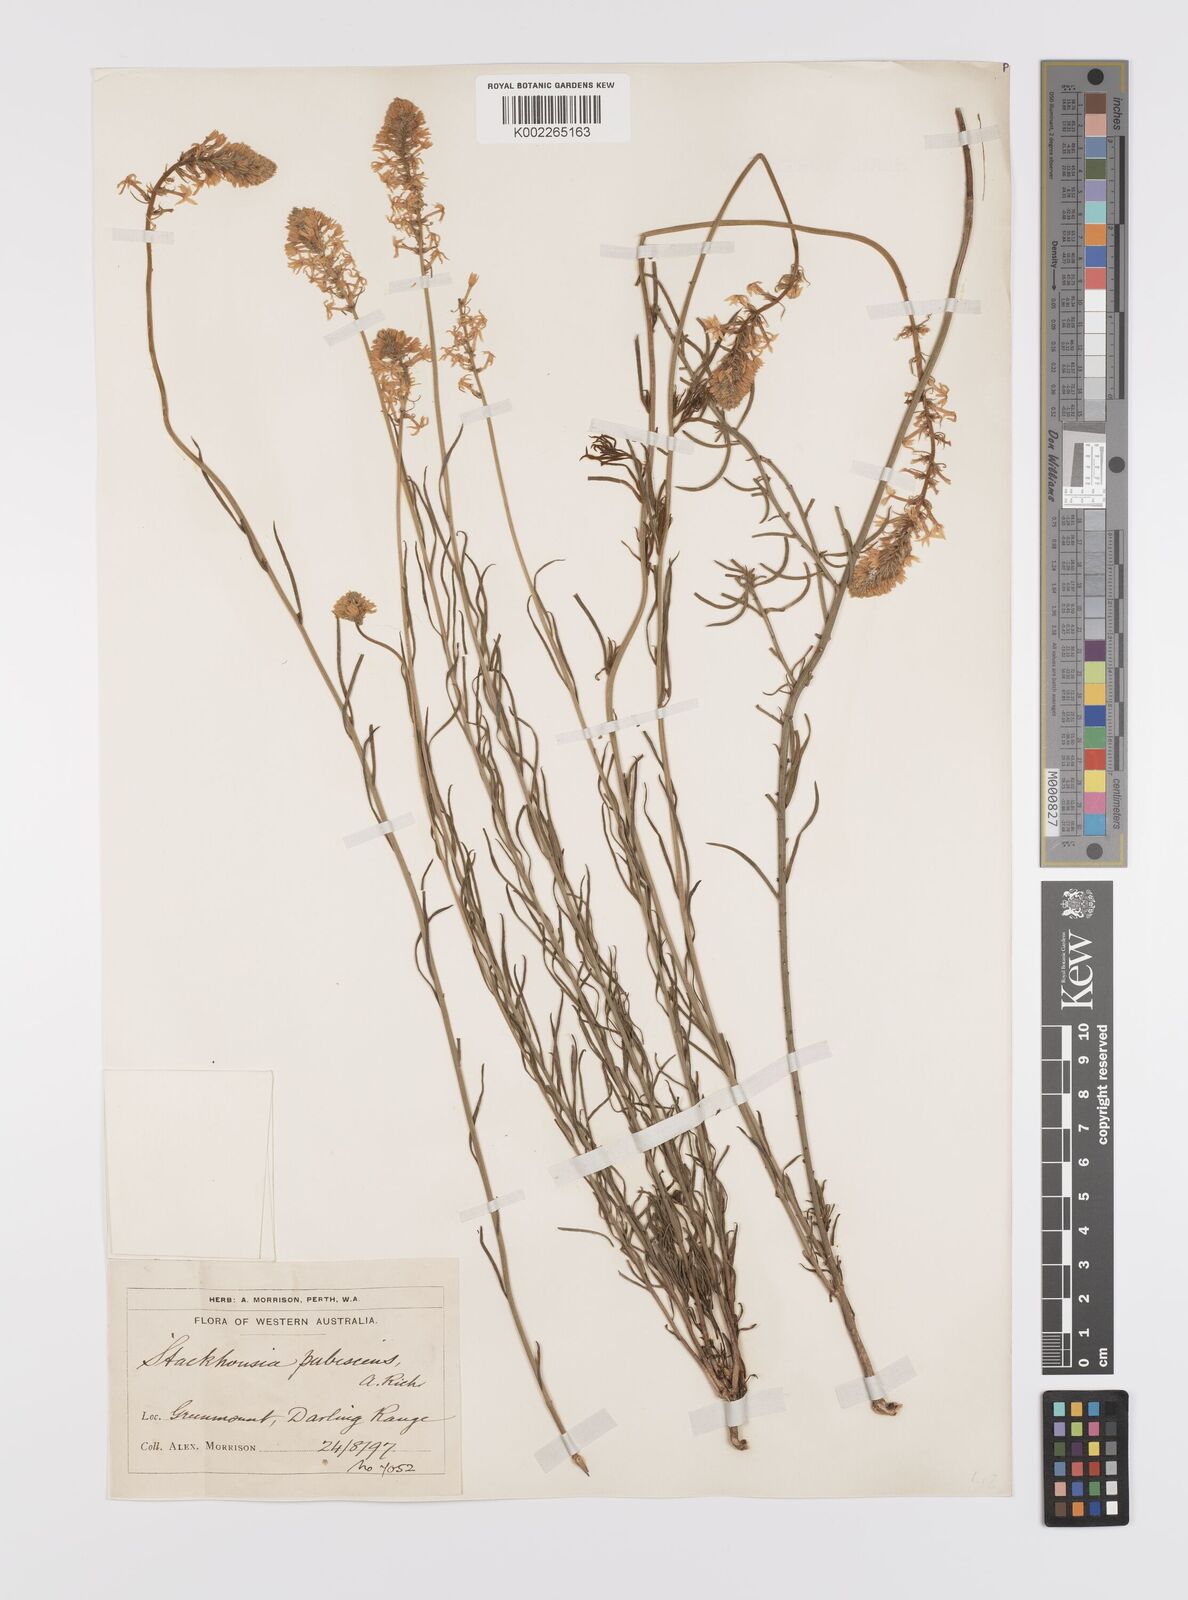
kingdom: Plantae
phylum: Tracheophyta
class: Magnoliopsida
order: Celastrales
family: Celastraceae
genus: Stackhousia
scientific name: Stackhousia monogyna
